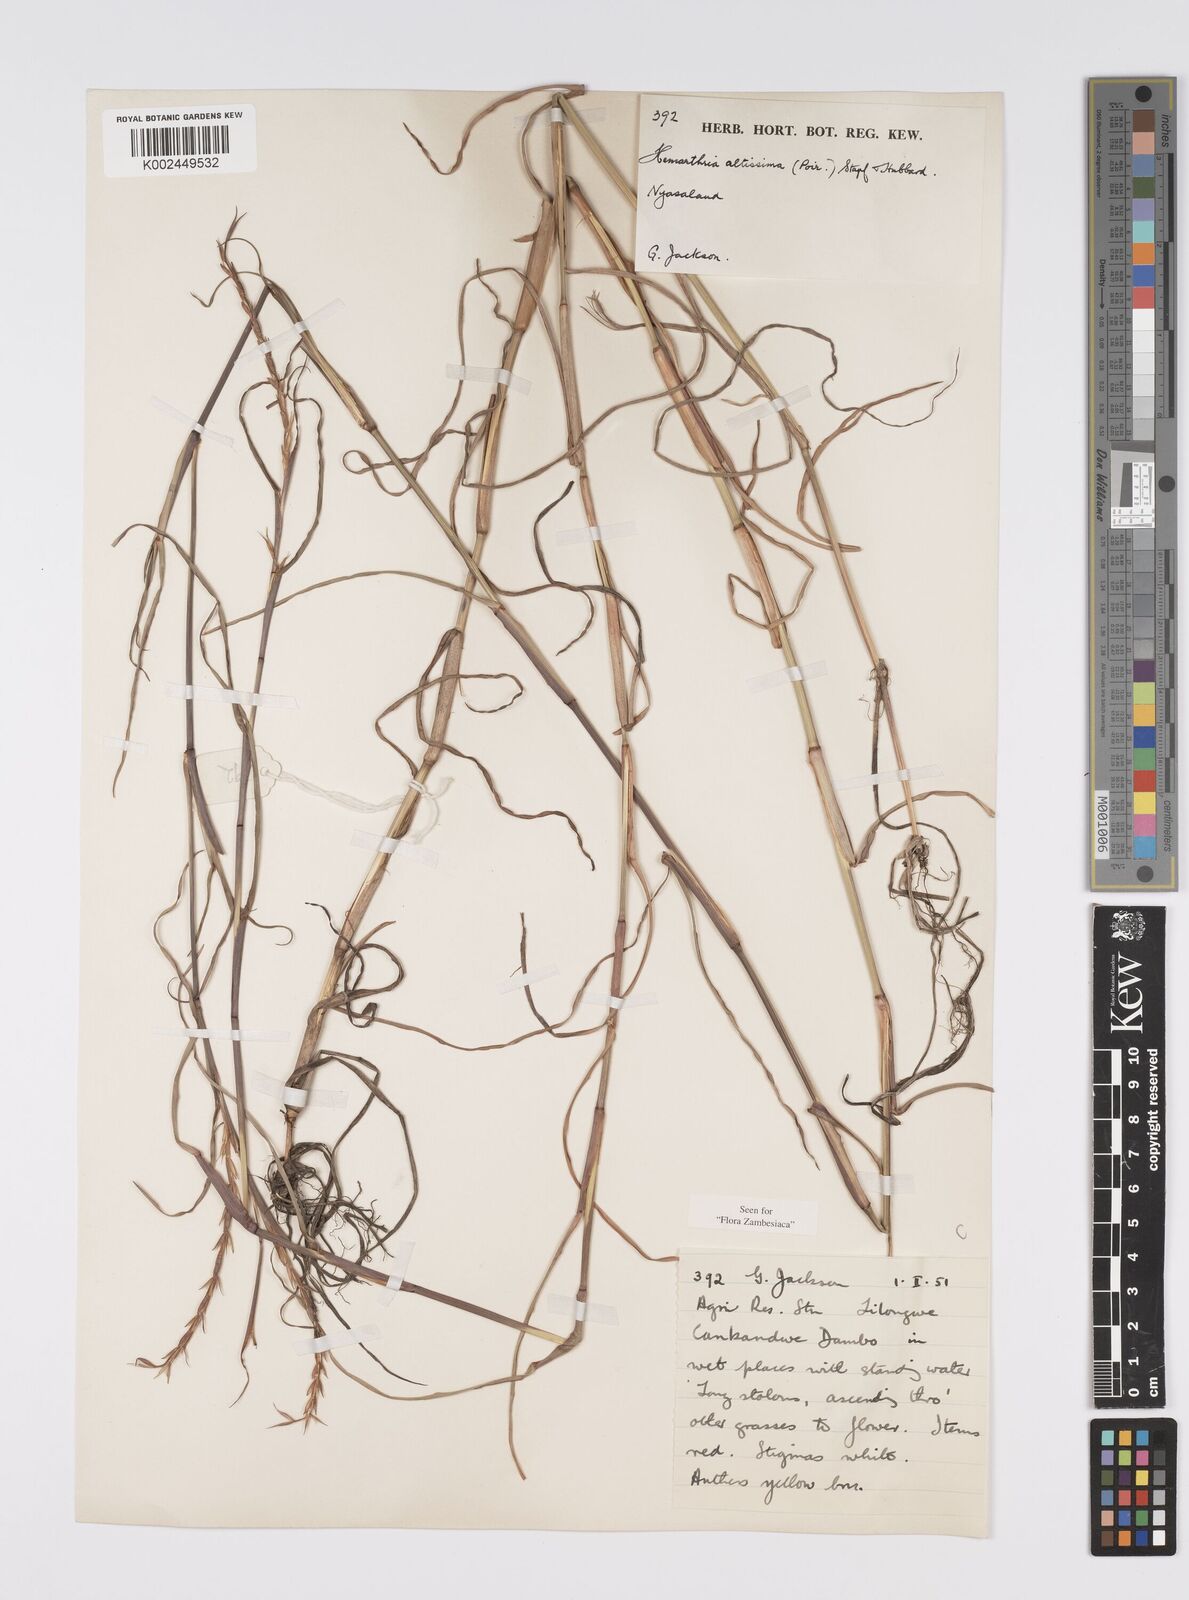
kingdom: Plantae
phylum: Tracheophyta
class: Liliopsida
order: Poales
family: Poaceae
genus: Hemarthria
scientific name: Hemarthria altissima
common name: African jointgrass
